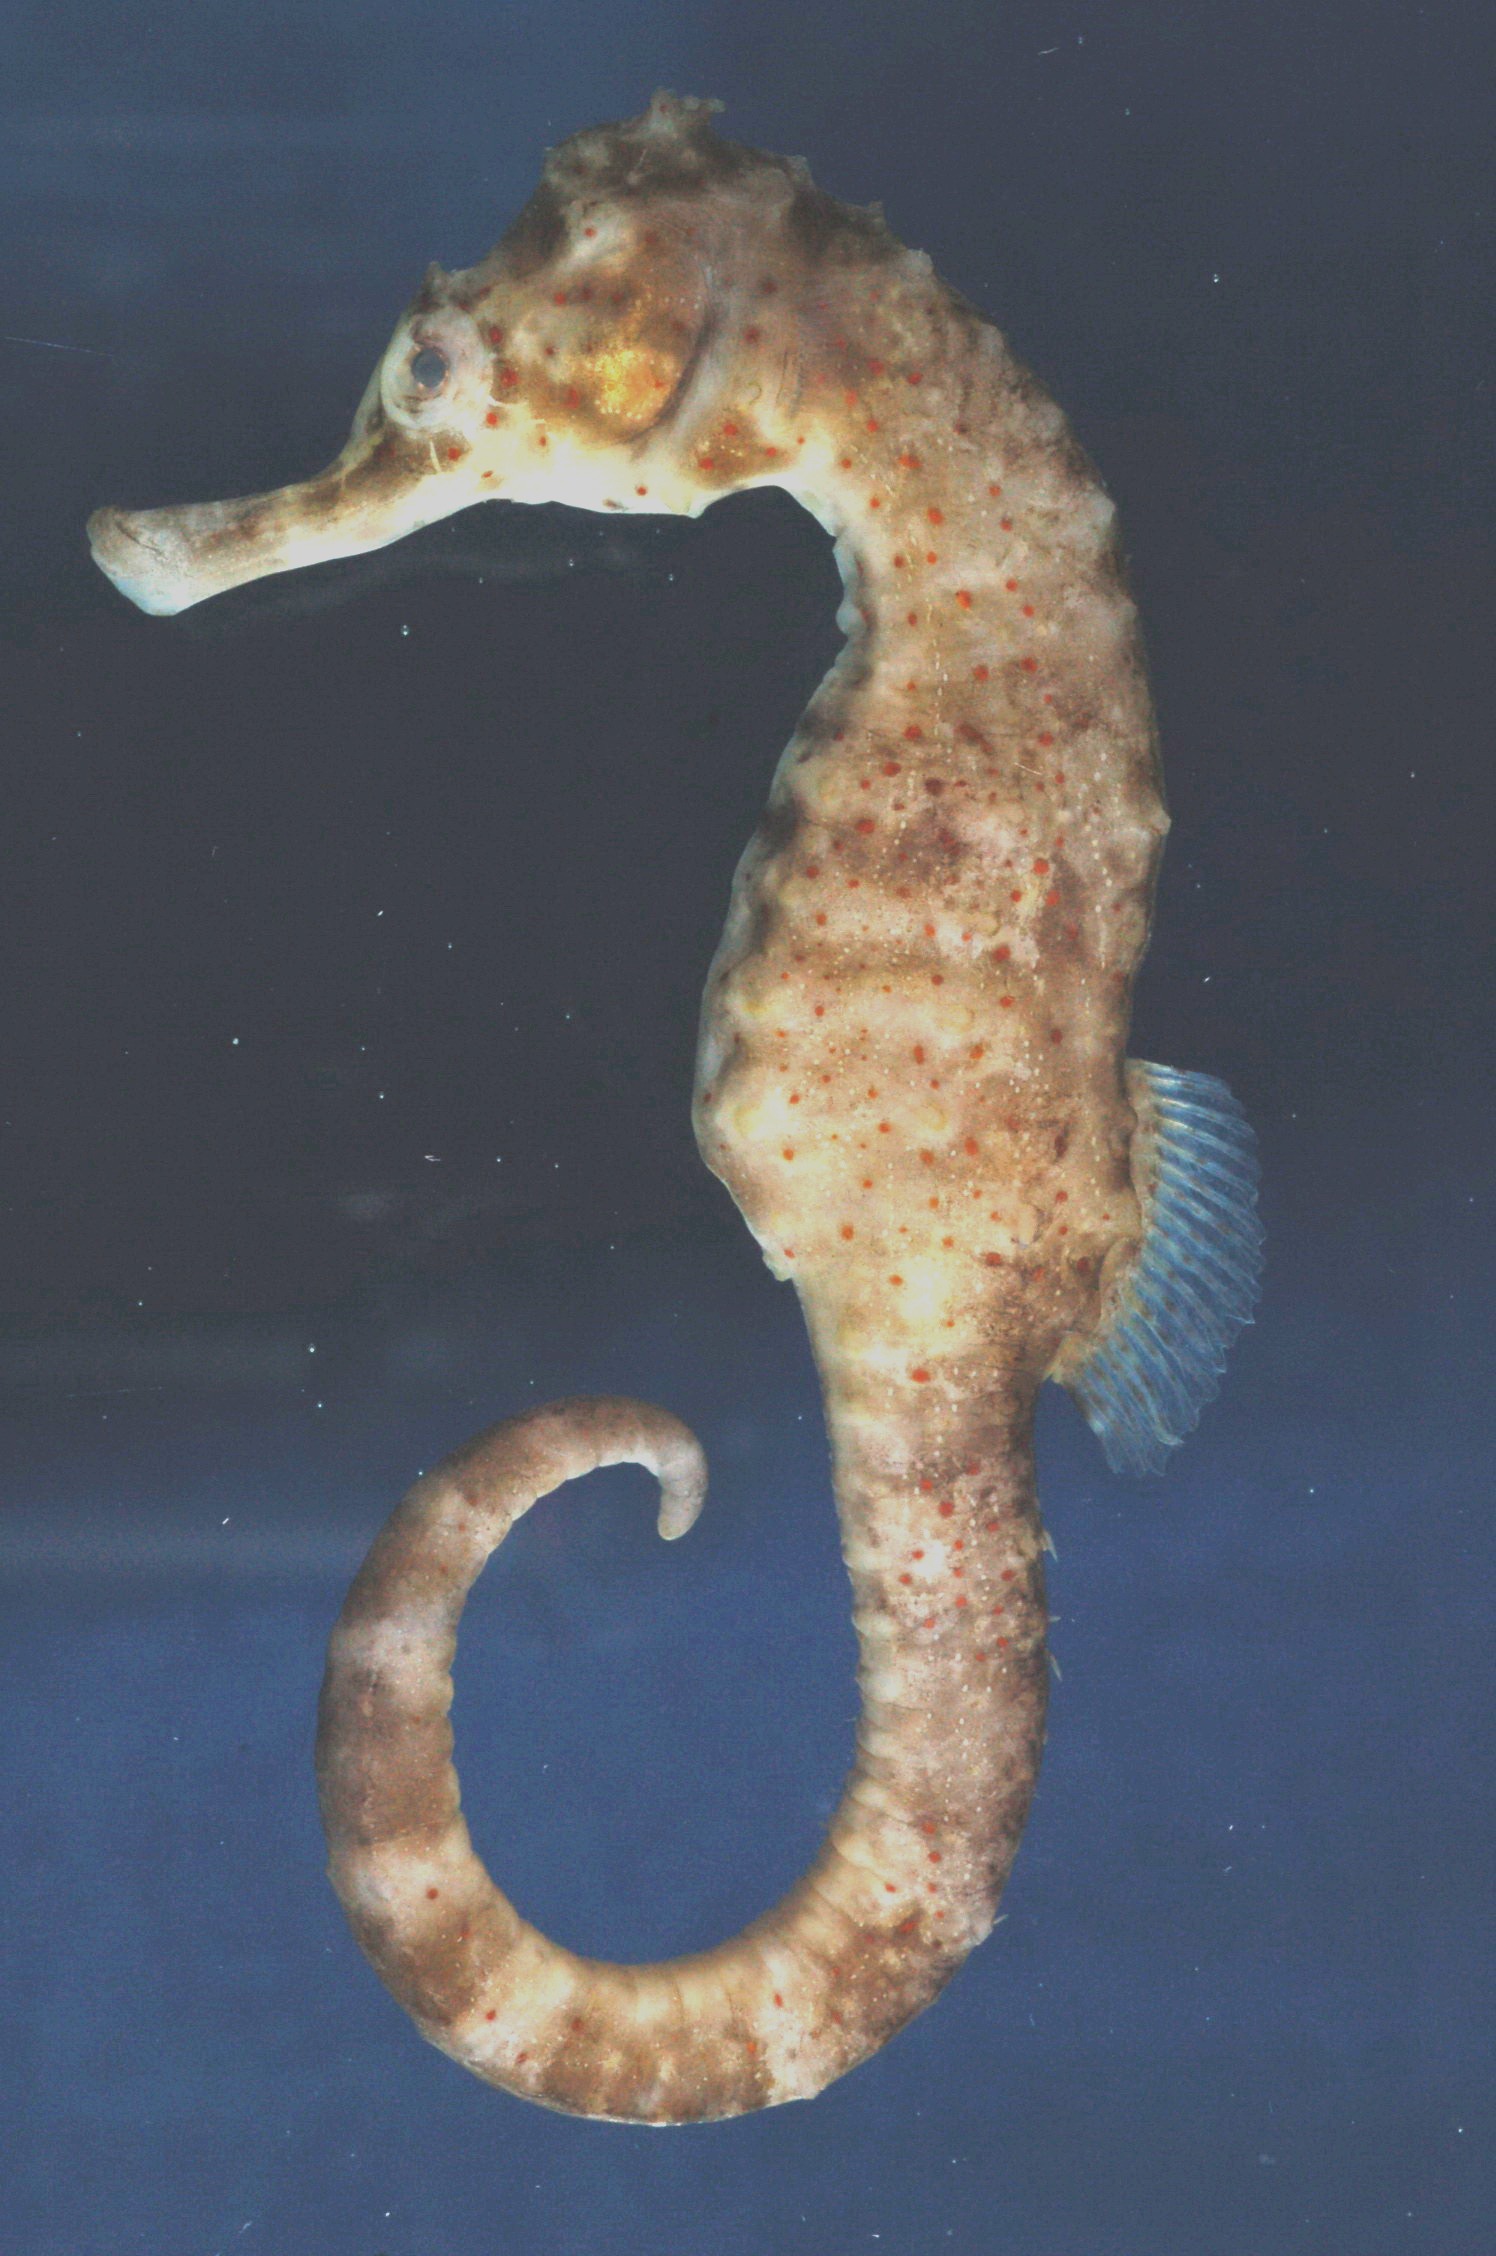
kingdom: Animalia
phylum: Chordata
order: Syngnathiformes
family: Syngnathidae
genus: Hippocampus
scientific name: Hippocampus borboniensis
